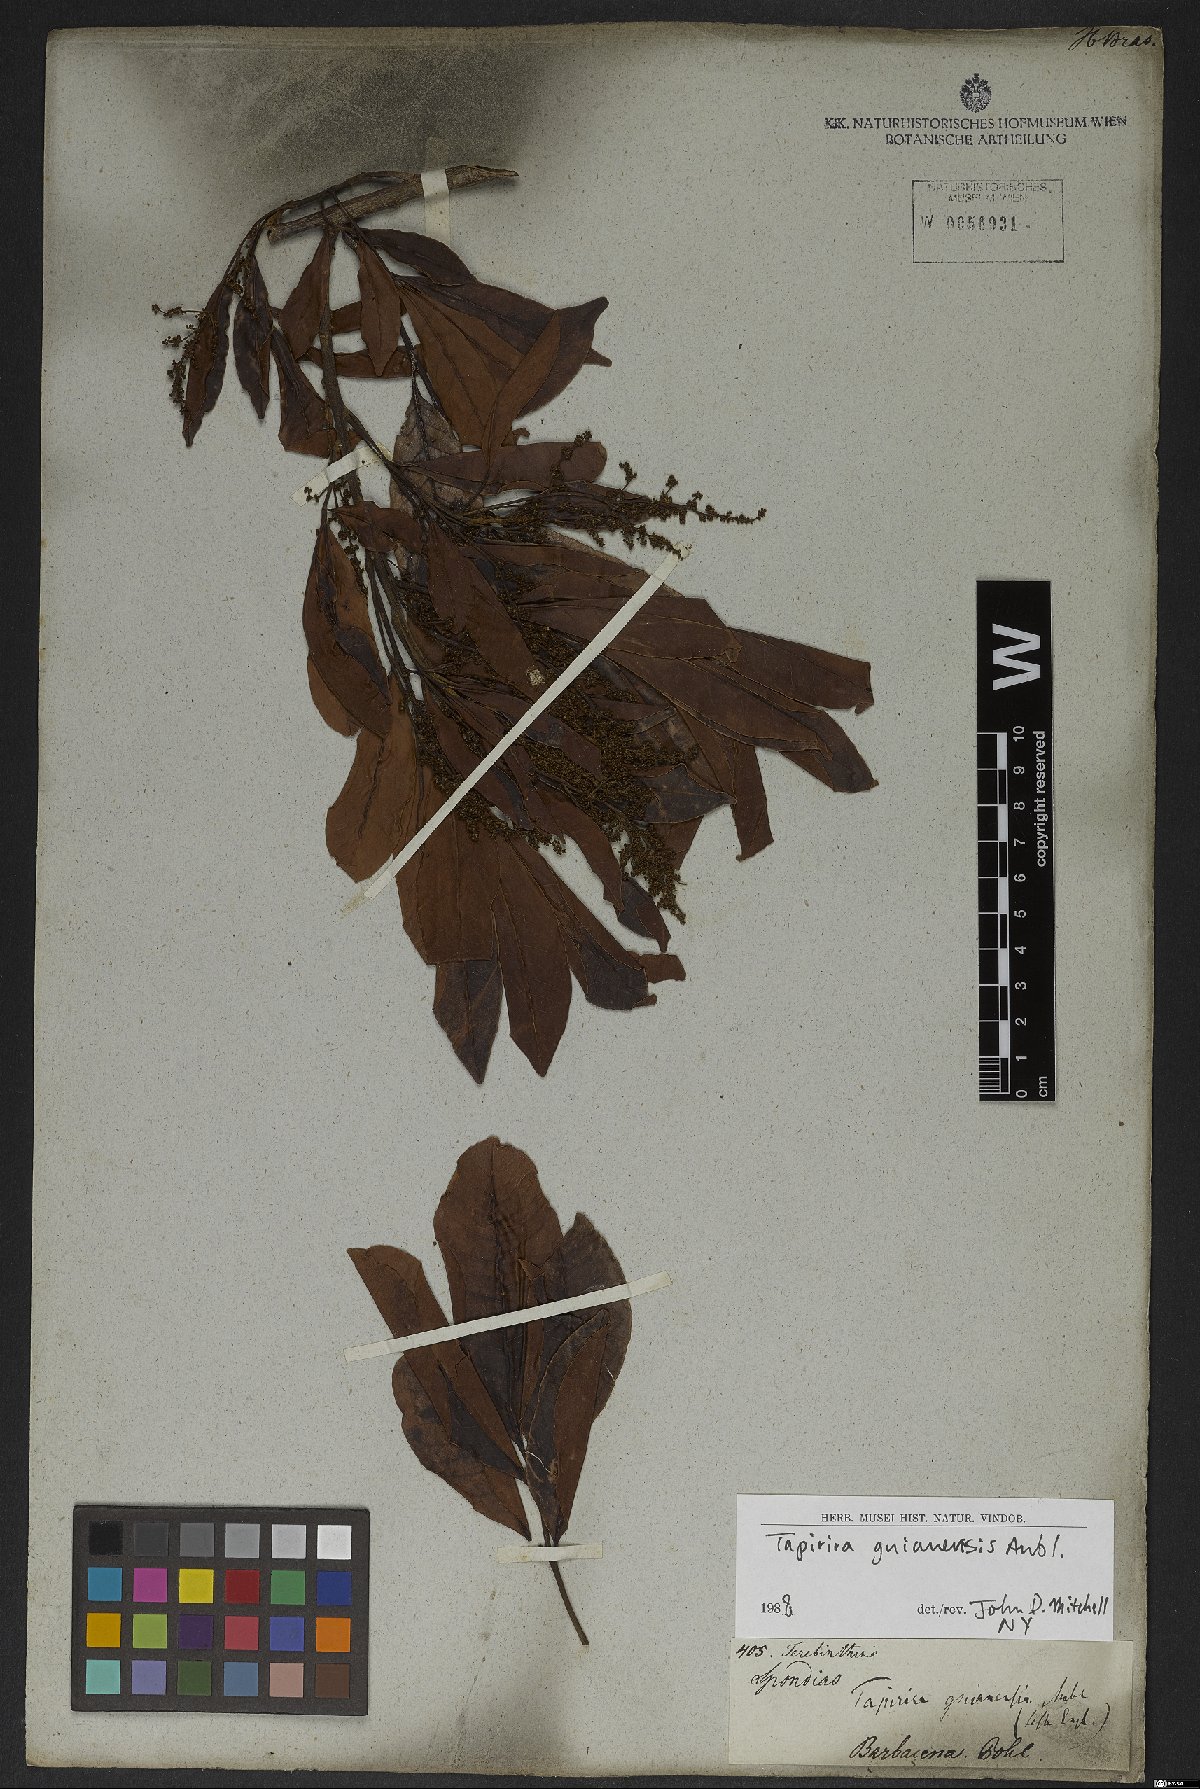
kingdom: Plantae
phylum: Tracheophyta
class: Magnoliopsida
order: Sapindales
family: Anacardiaceae
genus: Tapirira
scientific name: Tapirira guianensis
